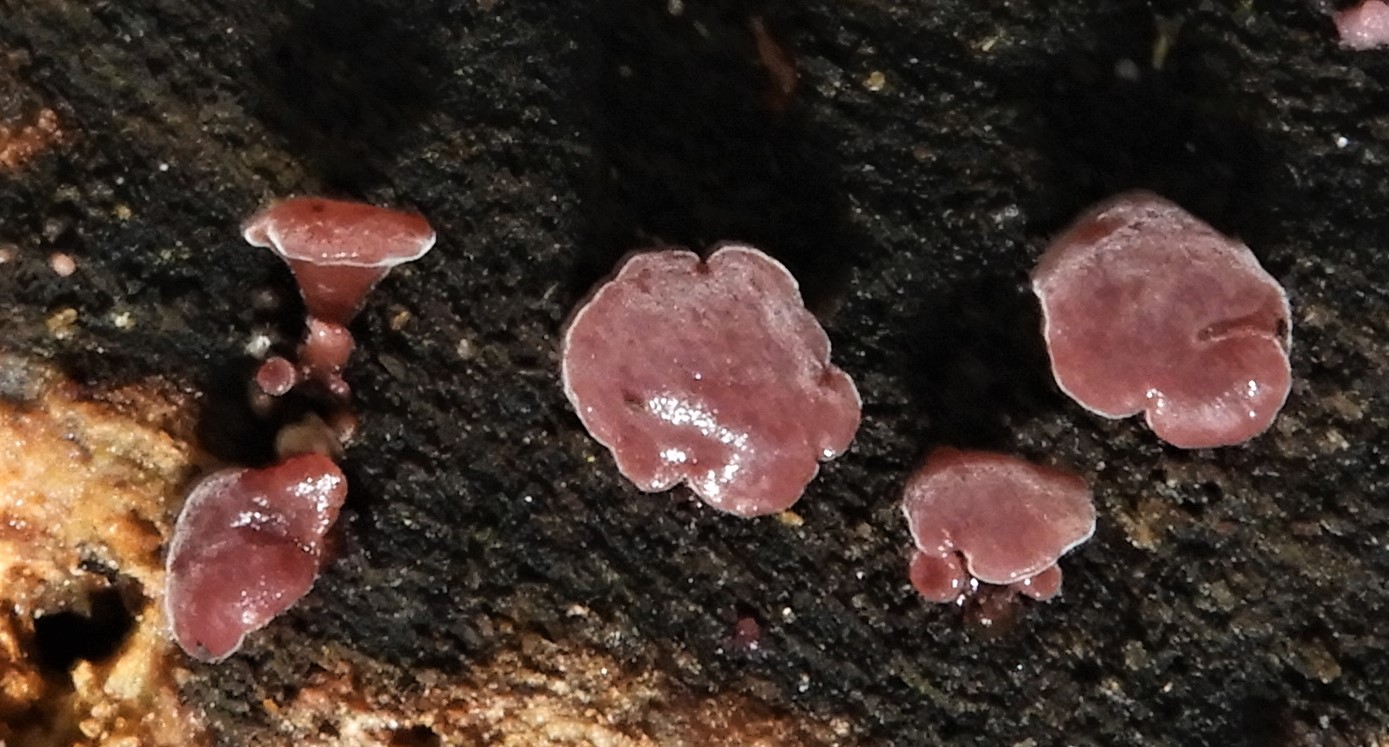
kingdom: Fungi
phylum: Ascomycota
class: Leotiomycetes
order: Helotiales
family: Gelatinodiscaceae
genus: Ascocoryne
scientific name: Ascocoryne cylichnium
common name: stor sejskive
